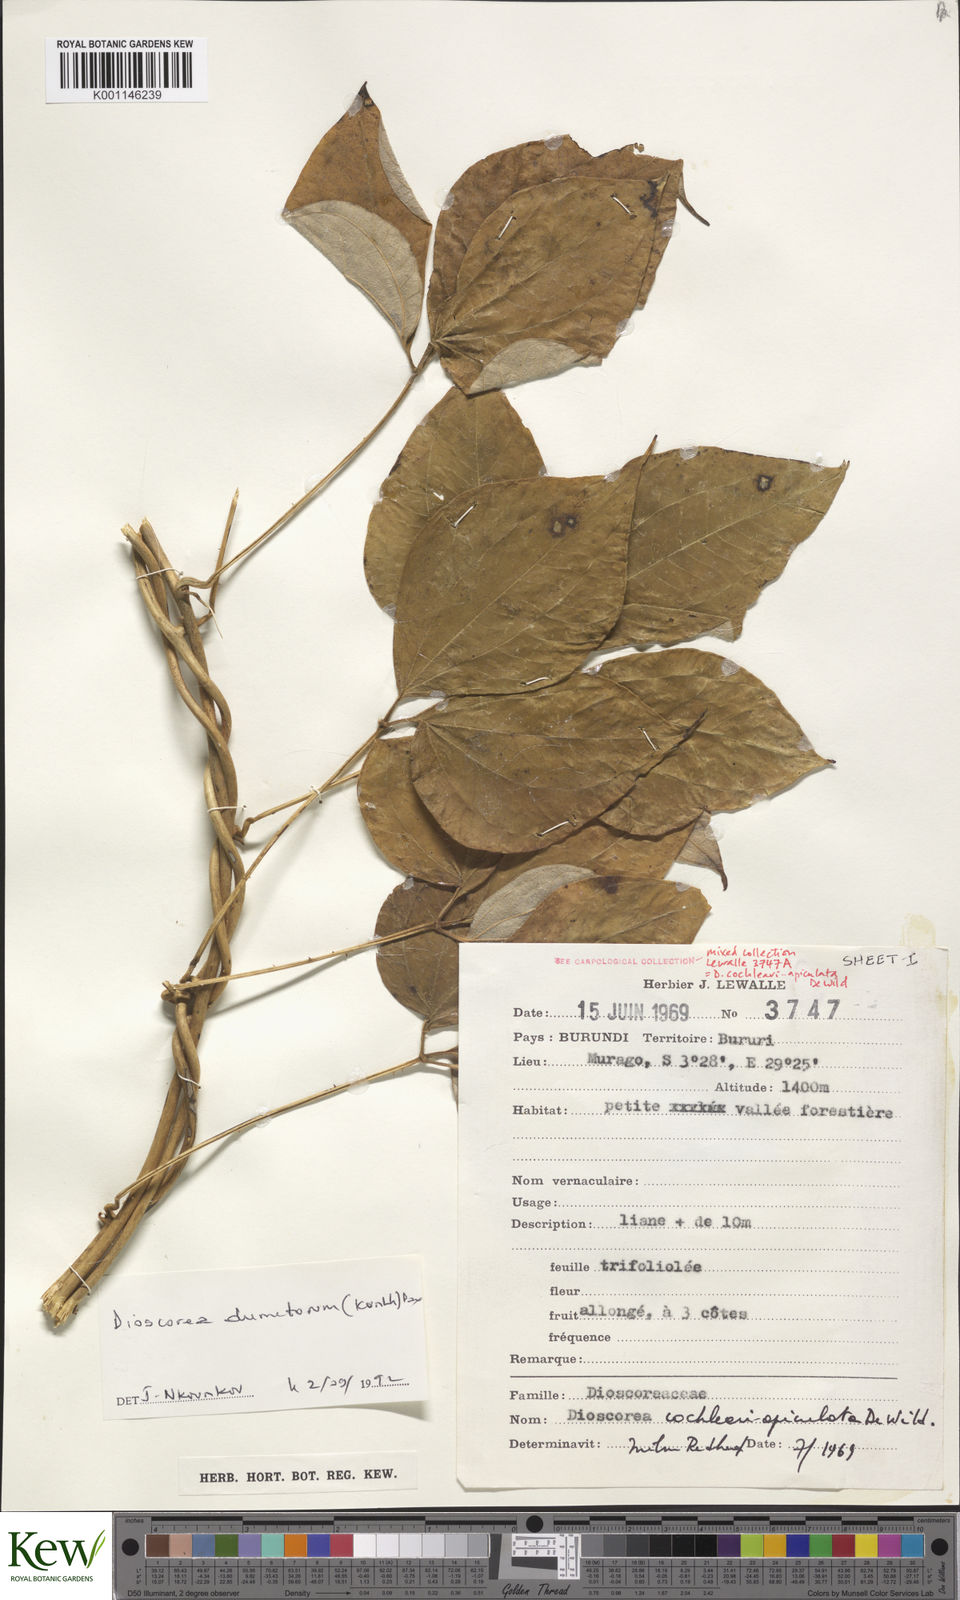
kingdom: Plantae
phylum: Tracheophyta
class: Liliopsida
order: Dioscoreales
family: Dioscoreaceae
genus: Dioscorea
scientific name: Dioscorea dumetorum
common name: African bitter yam
